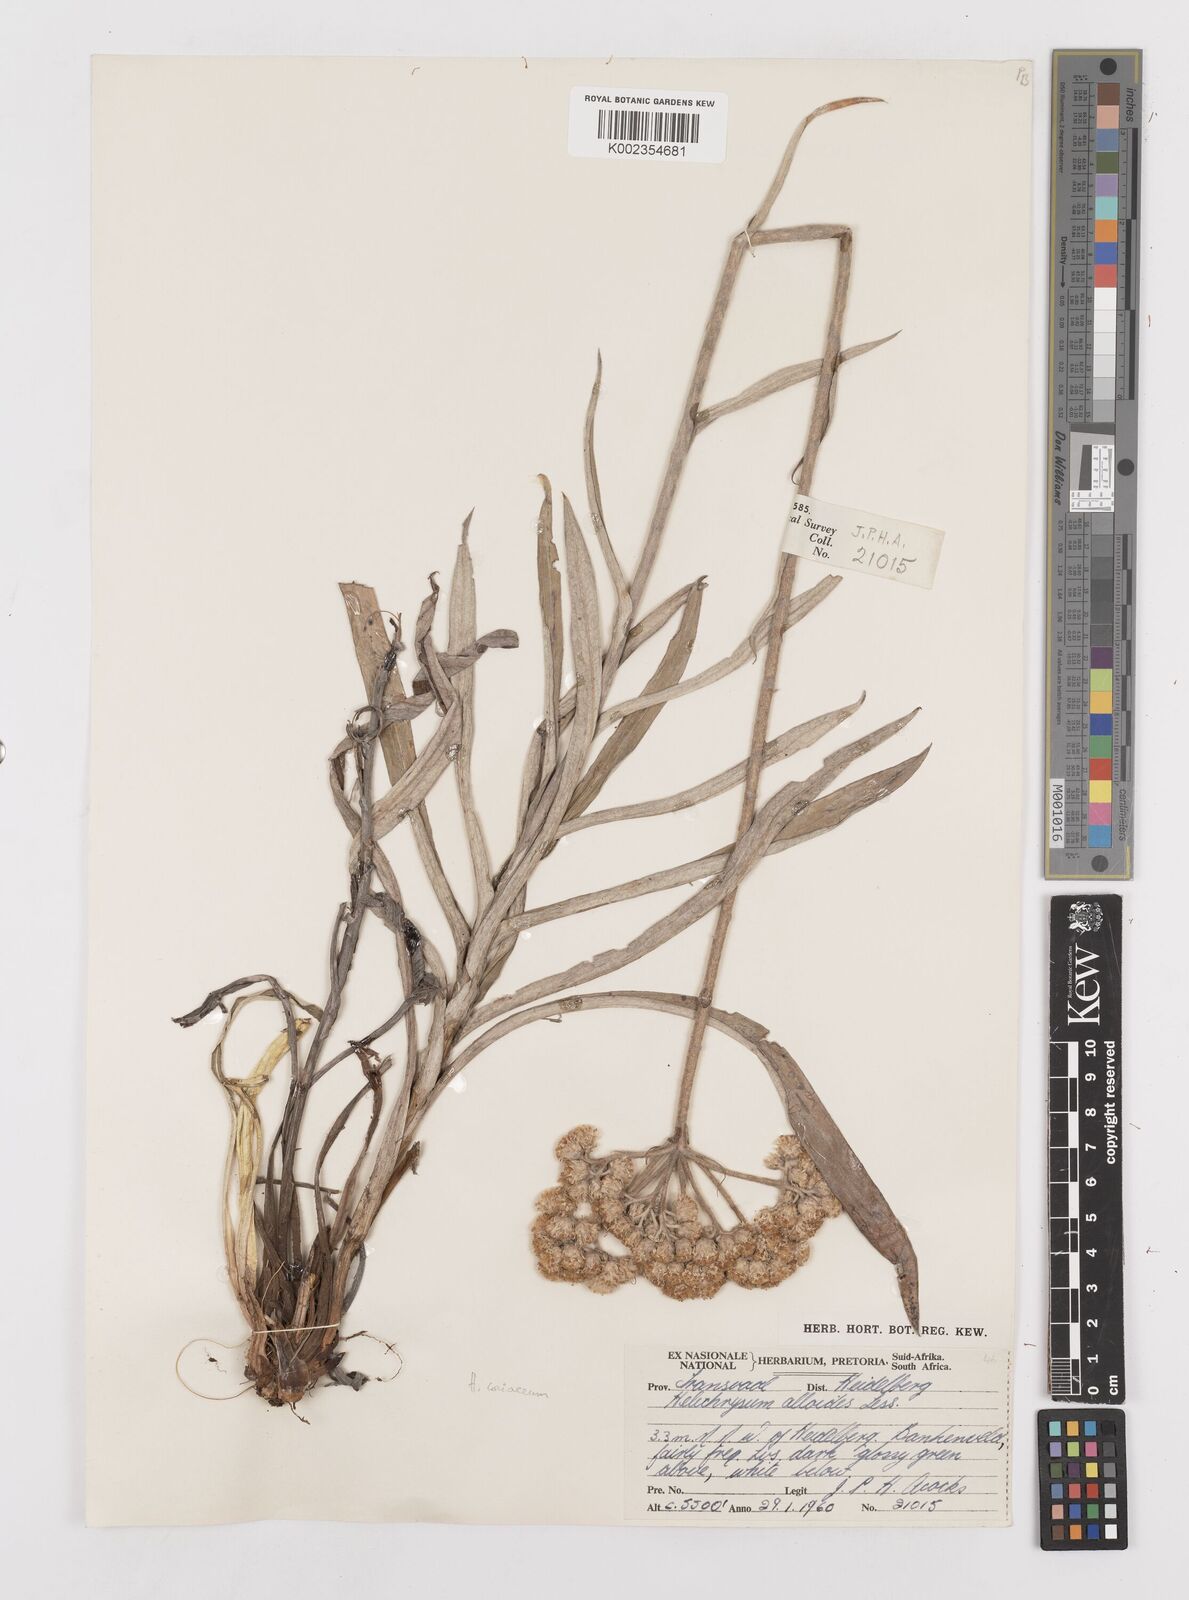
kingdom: Plantae
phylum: Tracheophyta
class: Magnoliopsida
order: Asterales
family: Asteraceae
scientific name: Asteraceae
